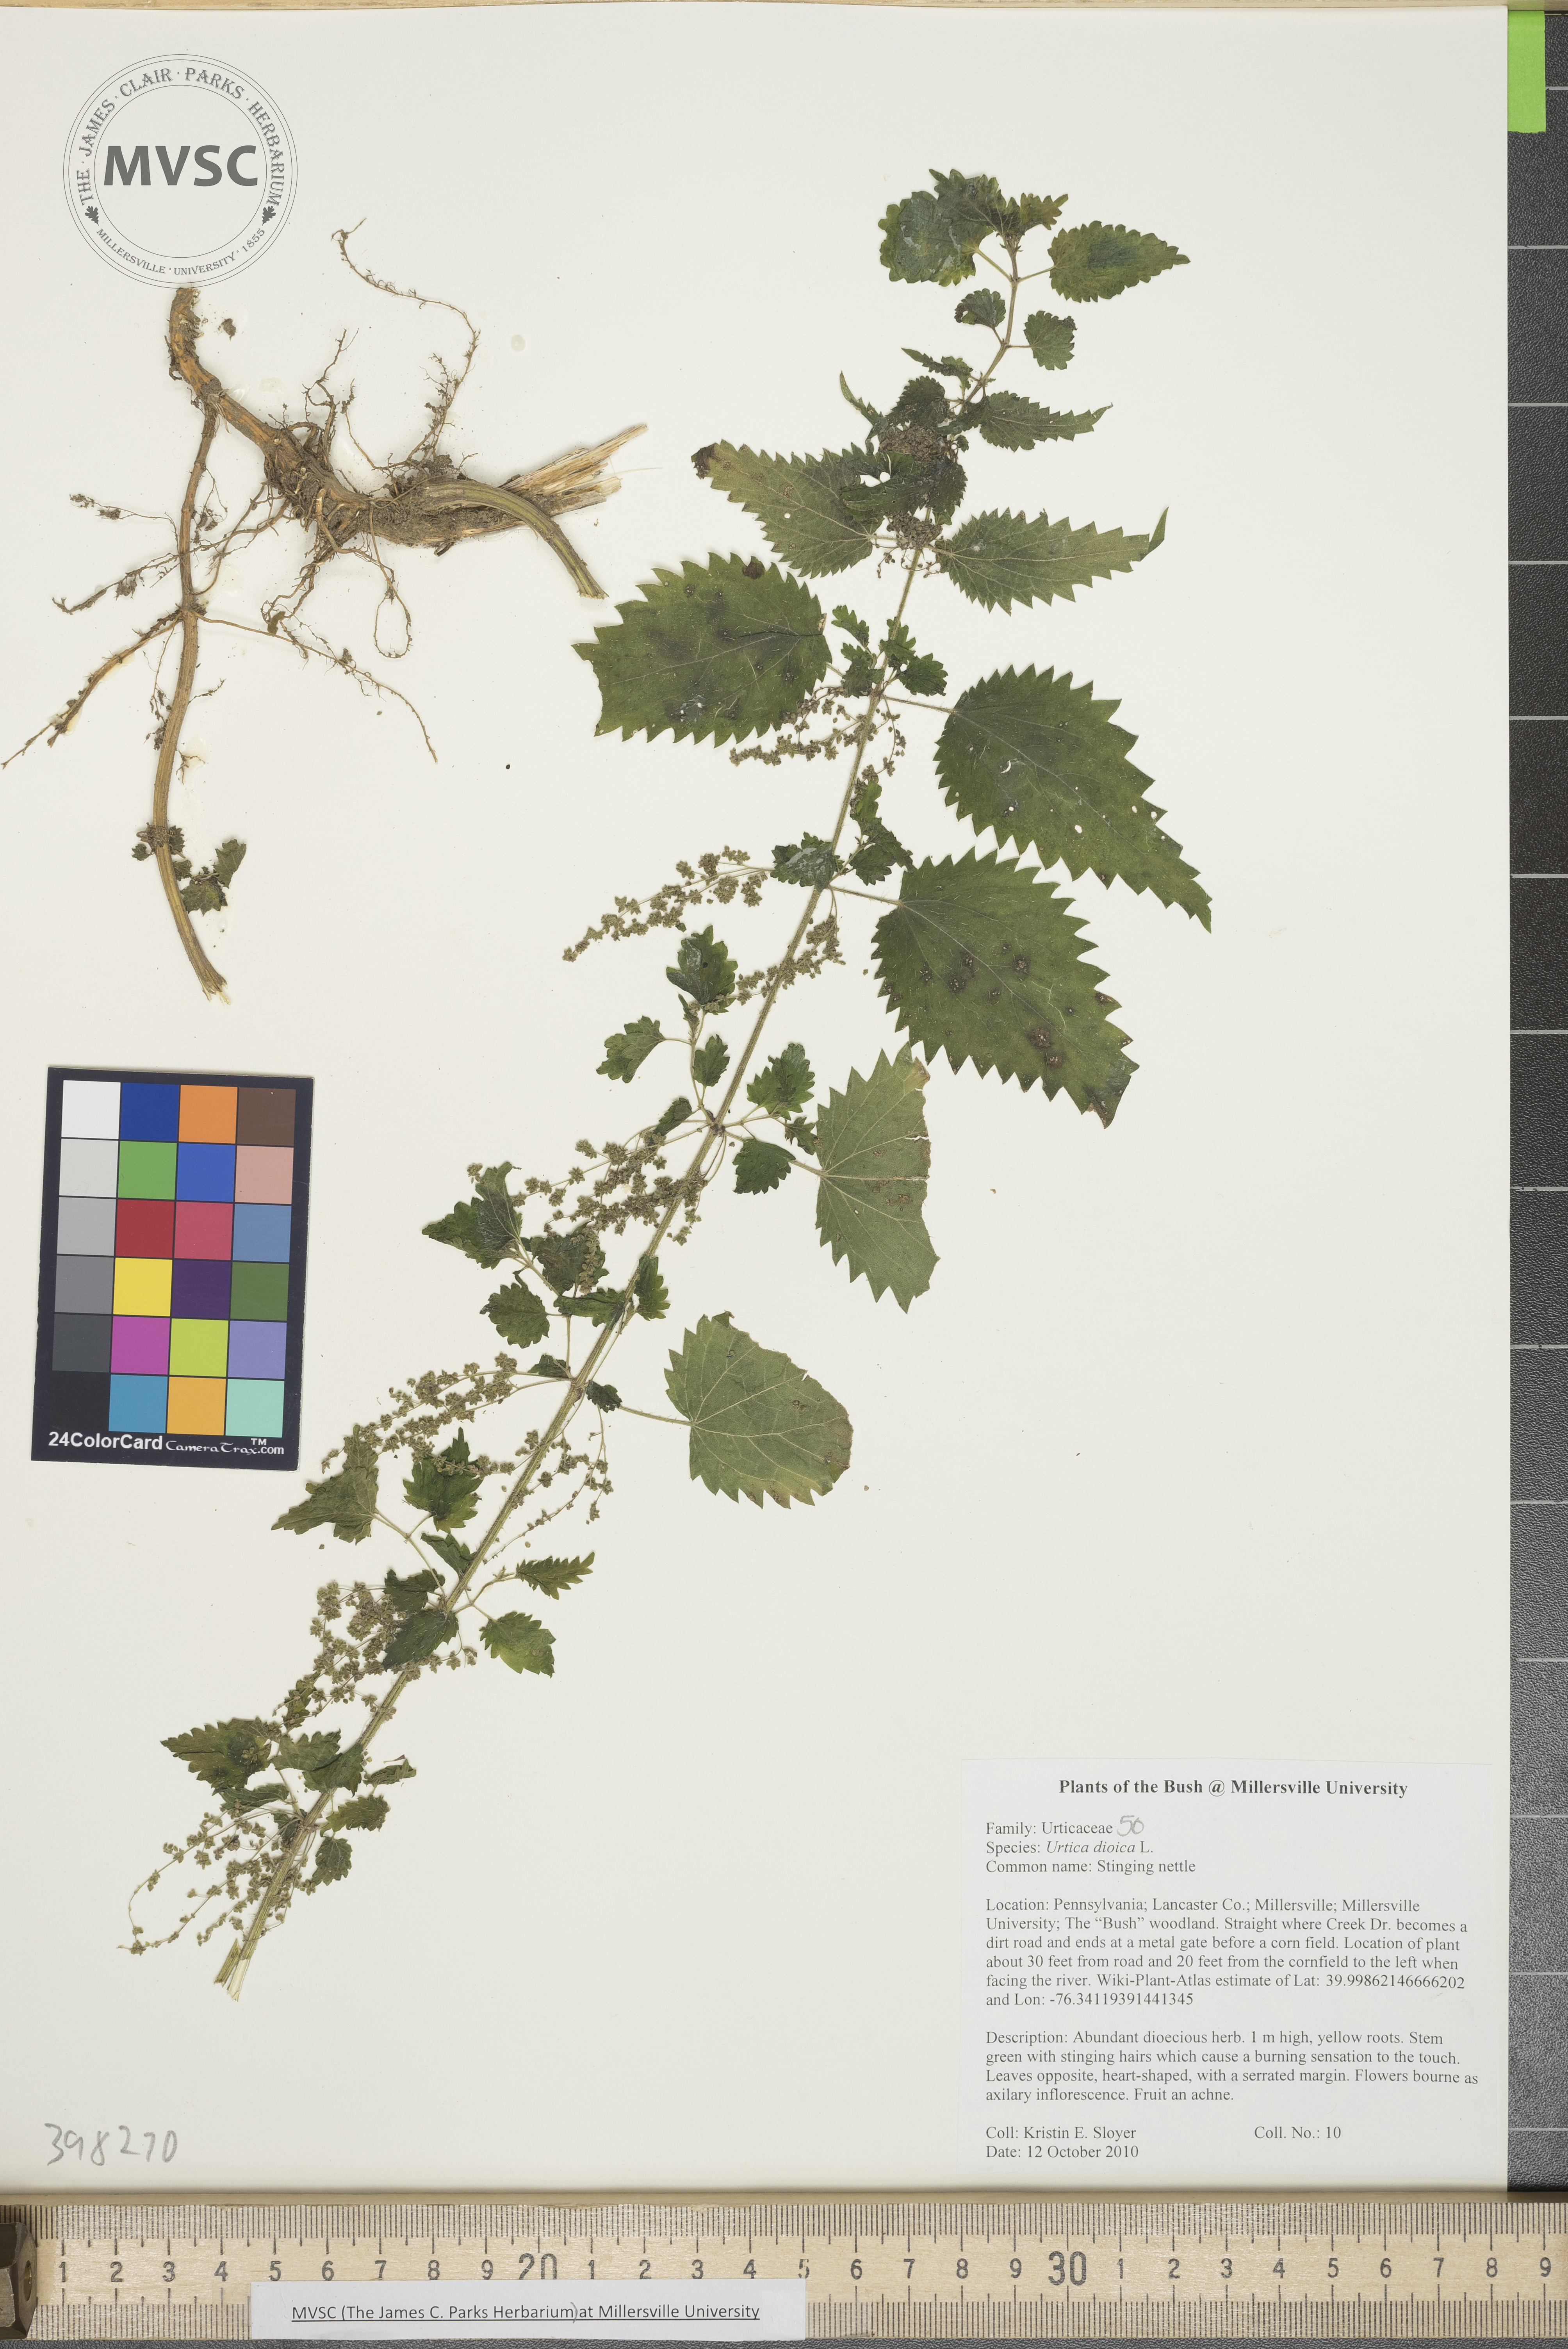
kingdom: Plantae
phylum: Tracheophyta
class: Magnoliopsida
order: Rosales
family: Urticaceae
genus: Urtica
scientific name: Urtica dioica
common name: Stinging nettle
